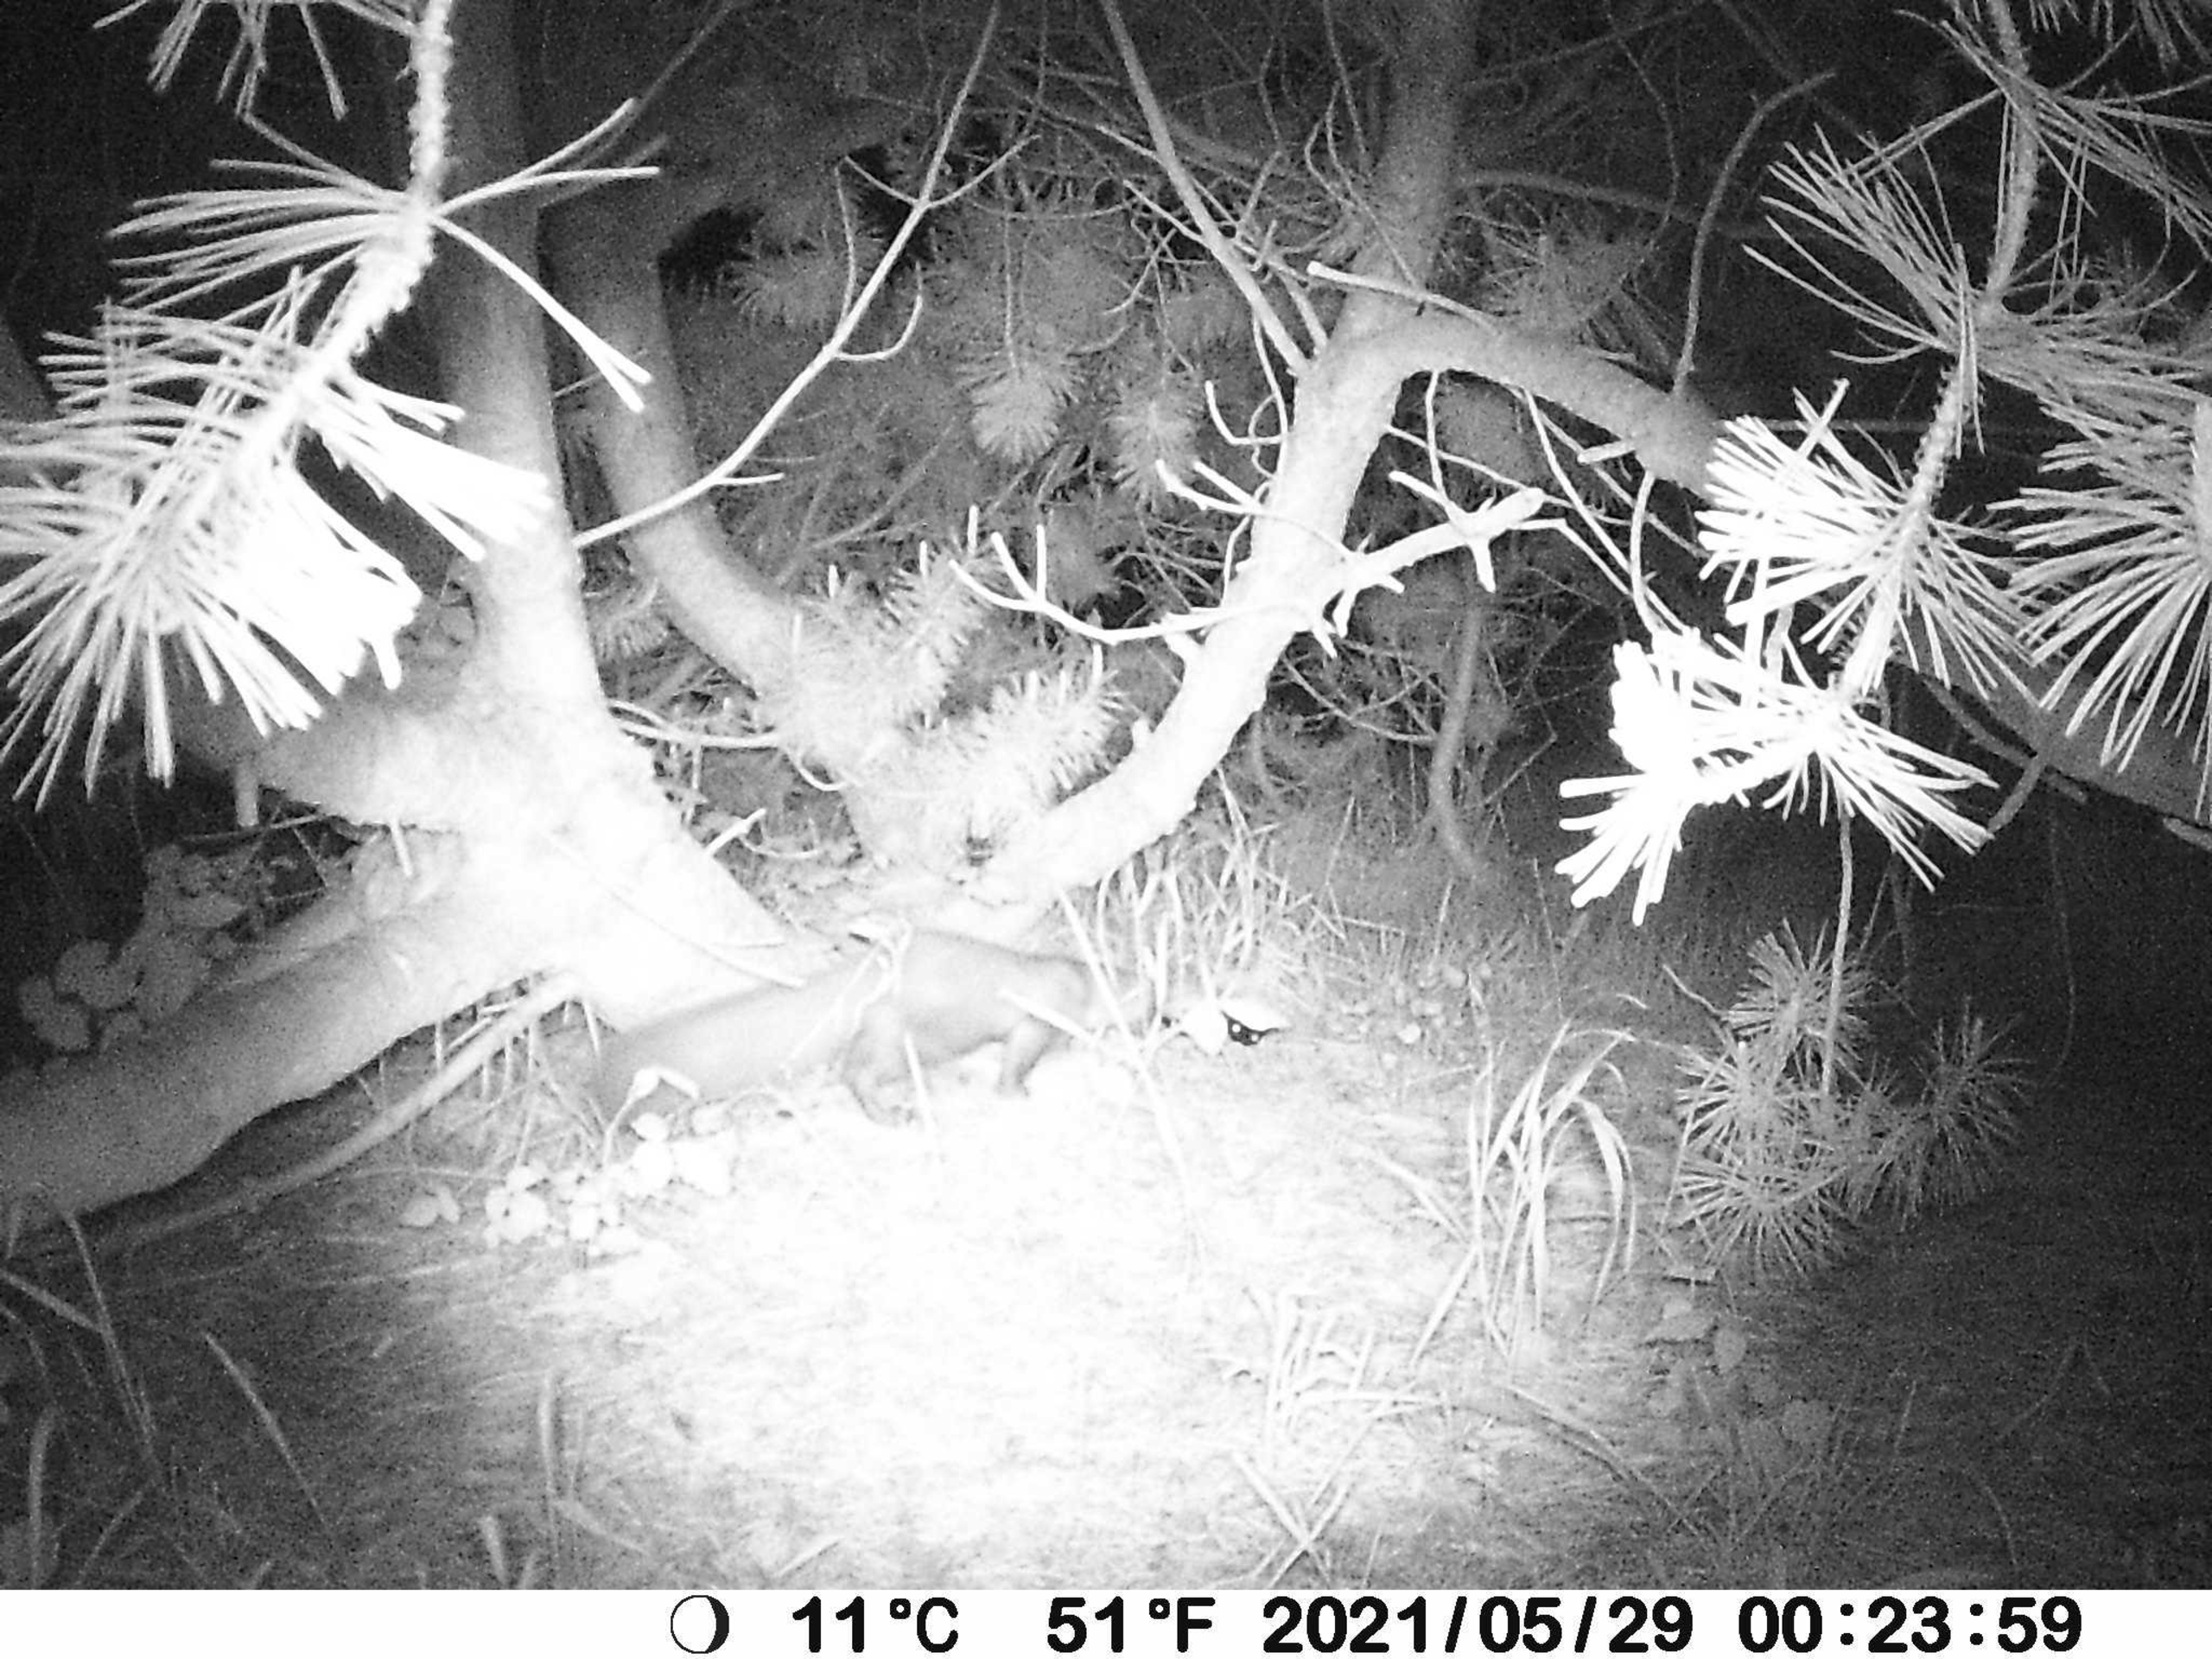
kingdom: Animalia
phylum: Chordata
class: Mammalia
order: Carnivora
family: Mustelidae
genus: Martes
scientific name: Martes foina
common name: Husmår
